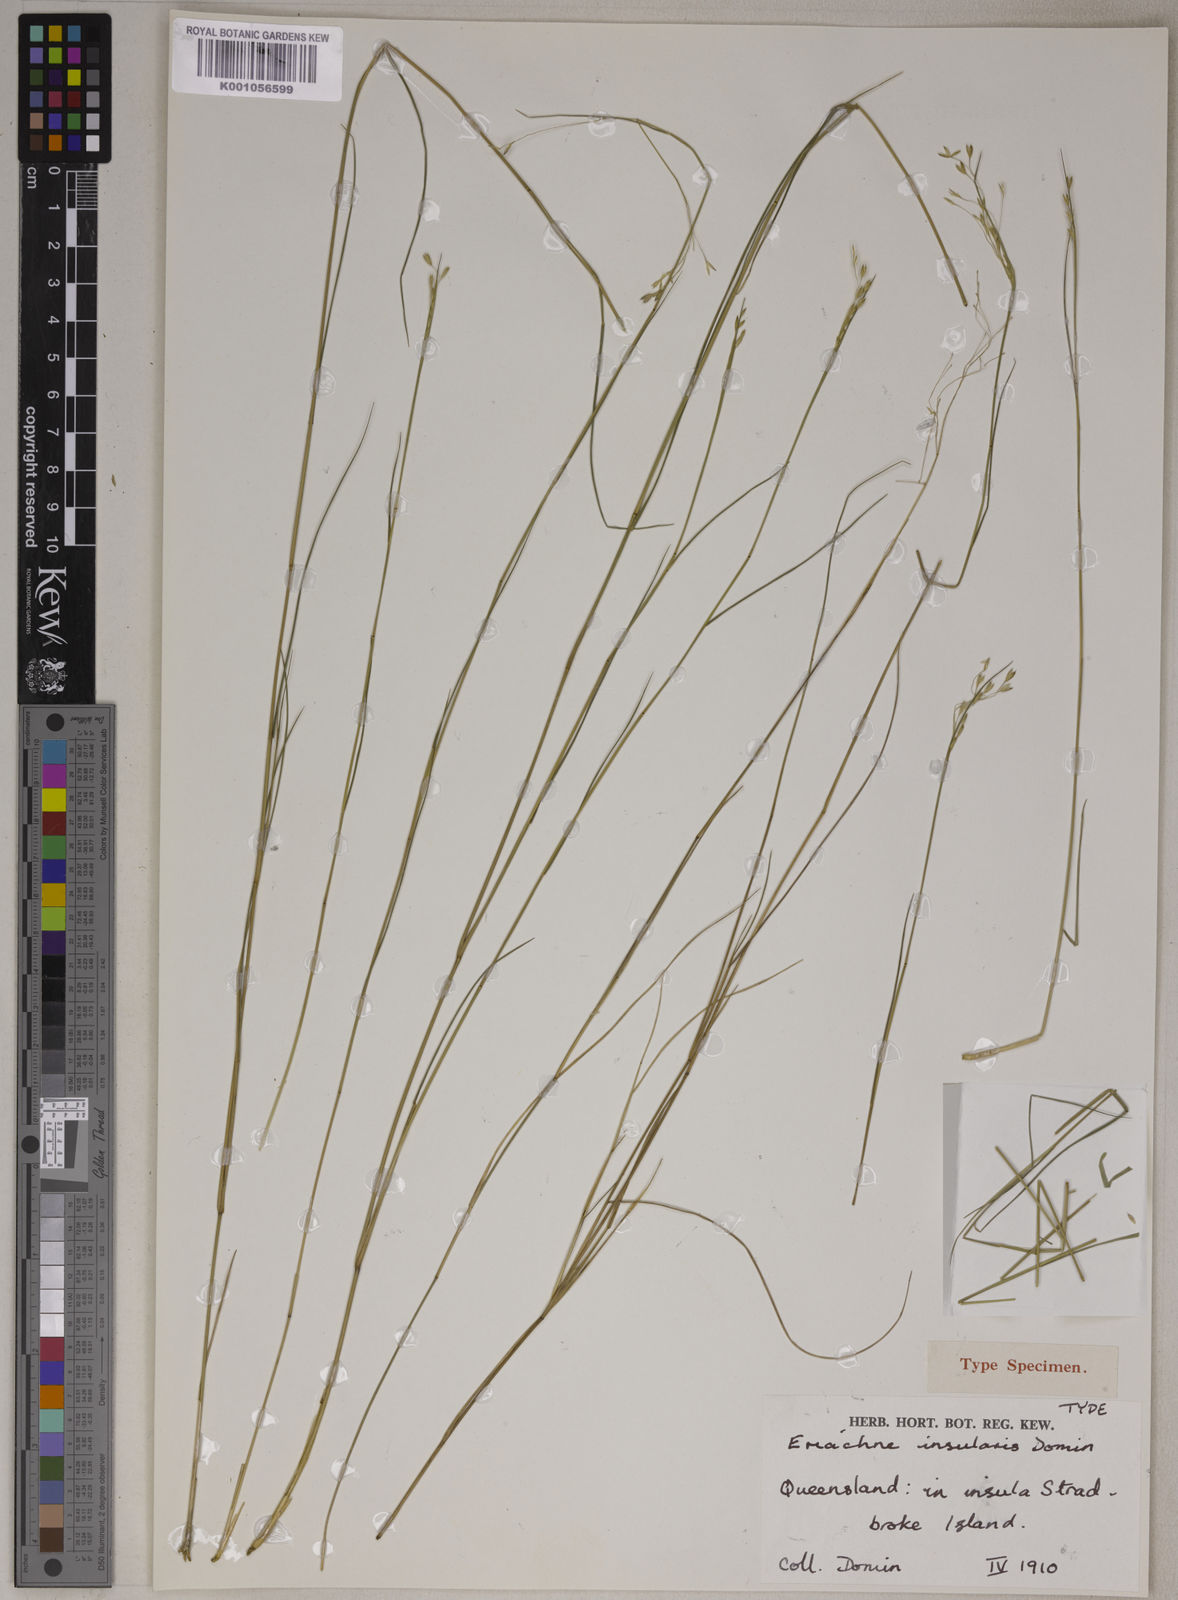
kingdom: Plantae
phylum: Tracheophyta
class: Liliopsida
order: Poales
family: Poaceae
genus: Eriachne
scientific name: Eriachne insularis
